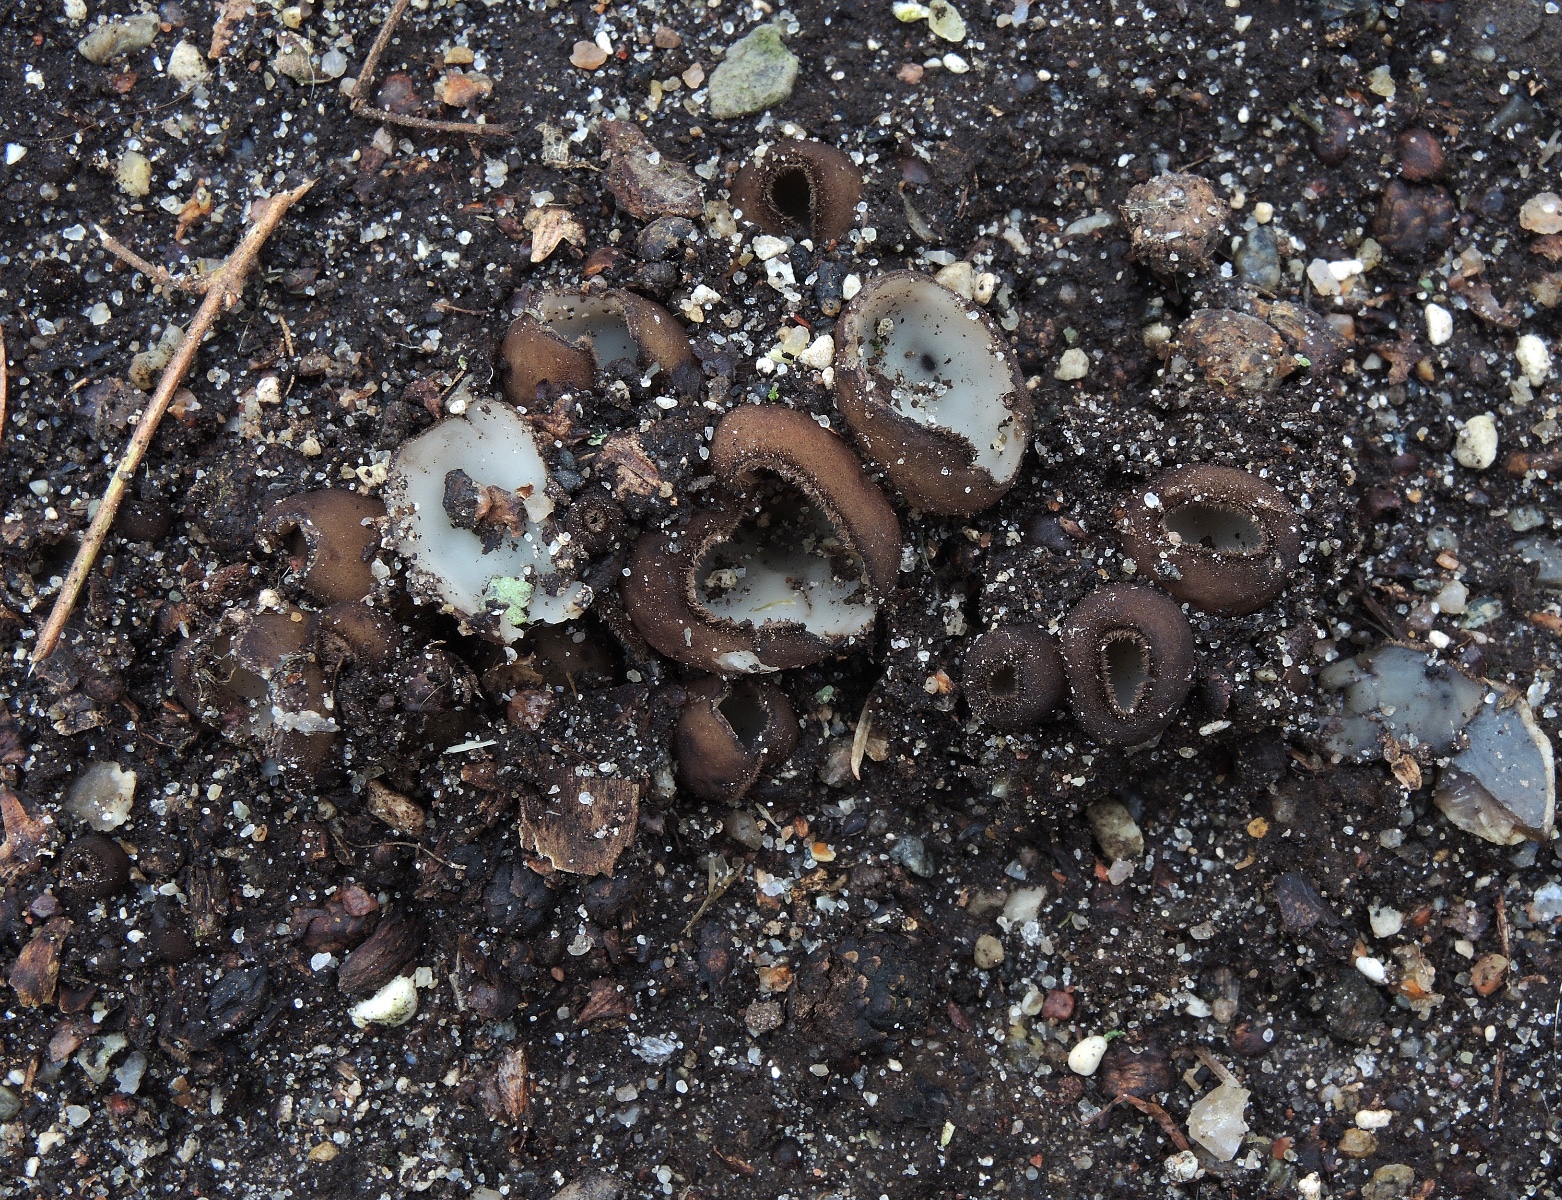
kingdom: Fungi
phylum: Ascomycota
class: Pezizomycetes
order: Pezizales
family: Pyronemataceae
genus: Humaria
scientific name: Humaria hemisphaerica
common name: halvkugleformet børstebæger
